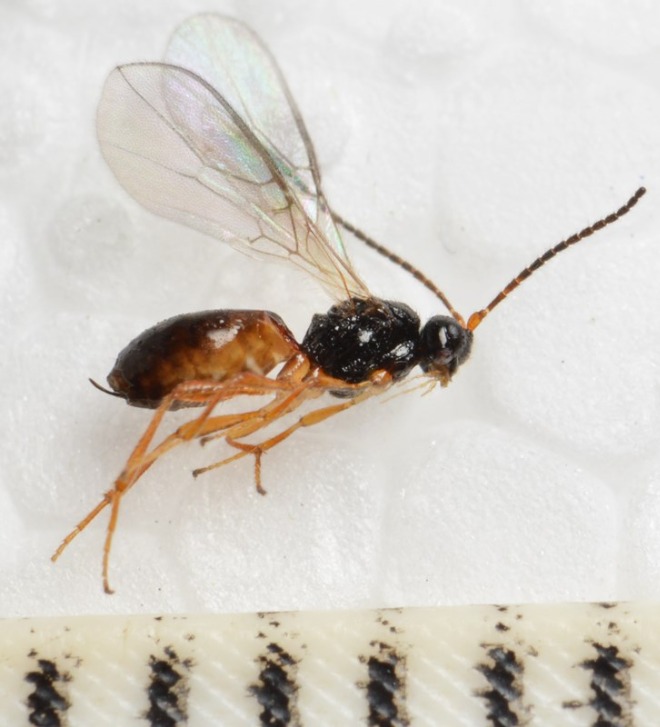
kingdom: Animalia
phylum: Arthropoda
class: Insecta
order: Hymenoptera
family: Braconidae
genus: Dinotrema
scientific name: Dinotrema contracticorne
